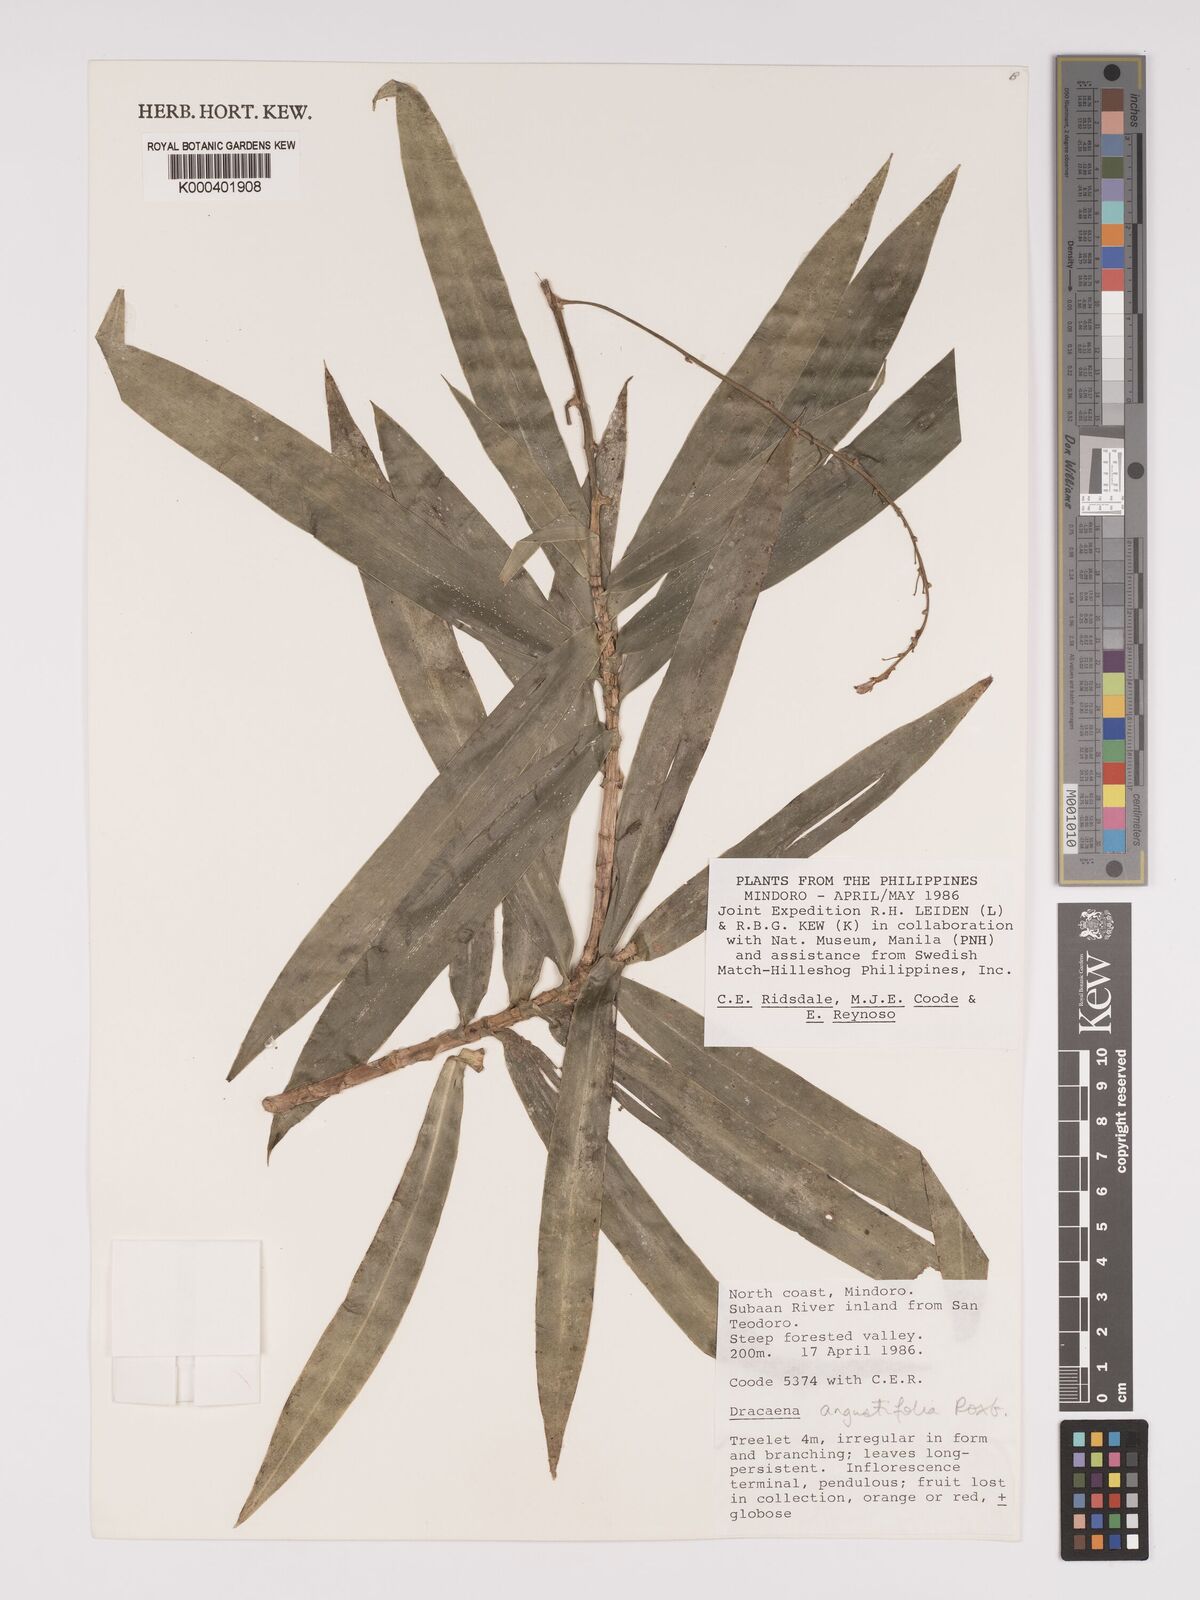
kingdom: Plantae
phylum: Tracheophyta
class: Liliopsida
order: Asparagales
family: Asparagaceae
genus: Dracaena
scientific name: Dracaena angustifolia
